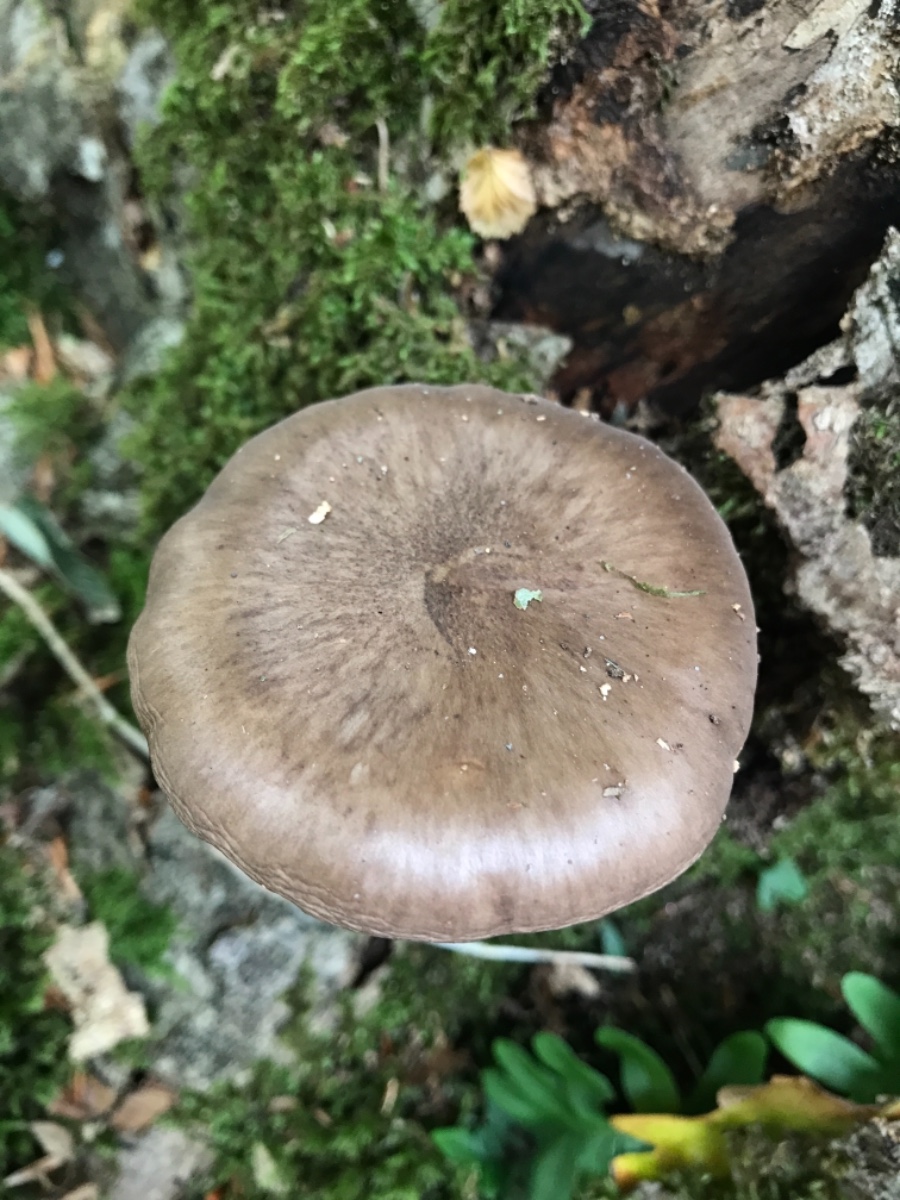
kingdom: Fungi
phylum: Basidiomycota
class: Agaricomycetes
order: Agaricales
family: Pluteaceae
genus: Pluteus
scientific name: Pluteus cervinus
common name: sodfarvet skærmhat
